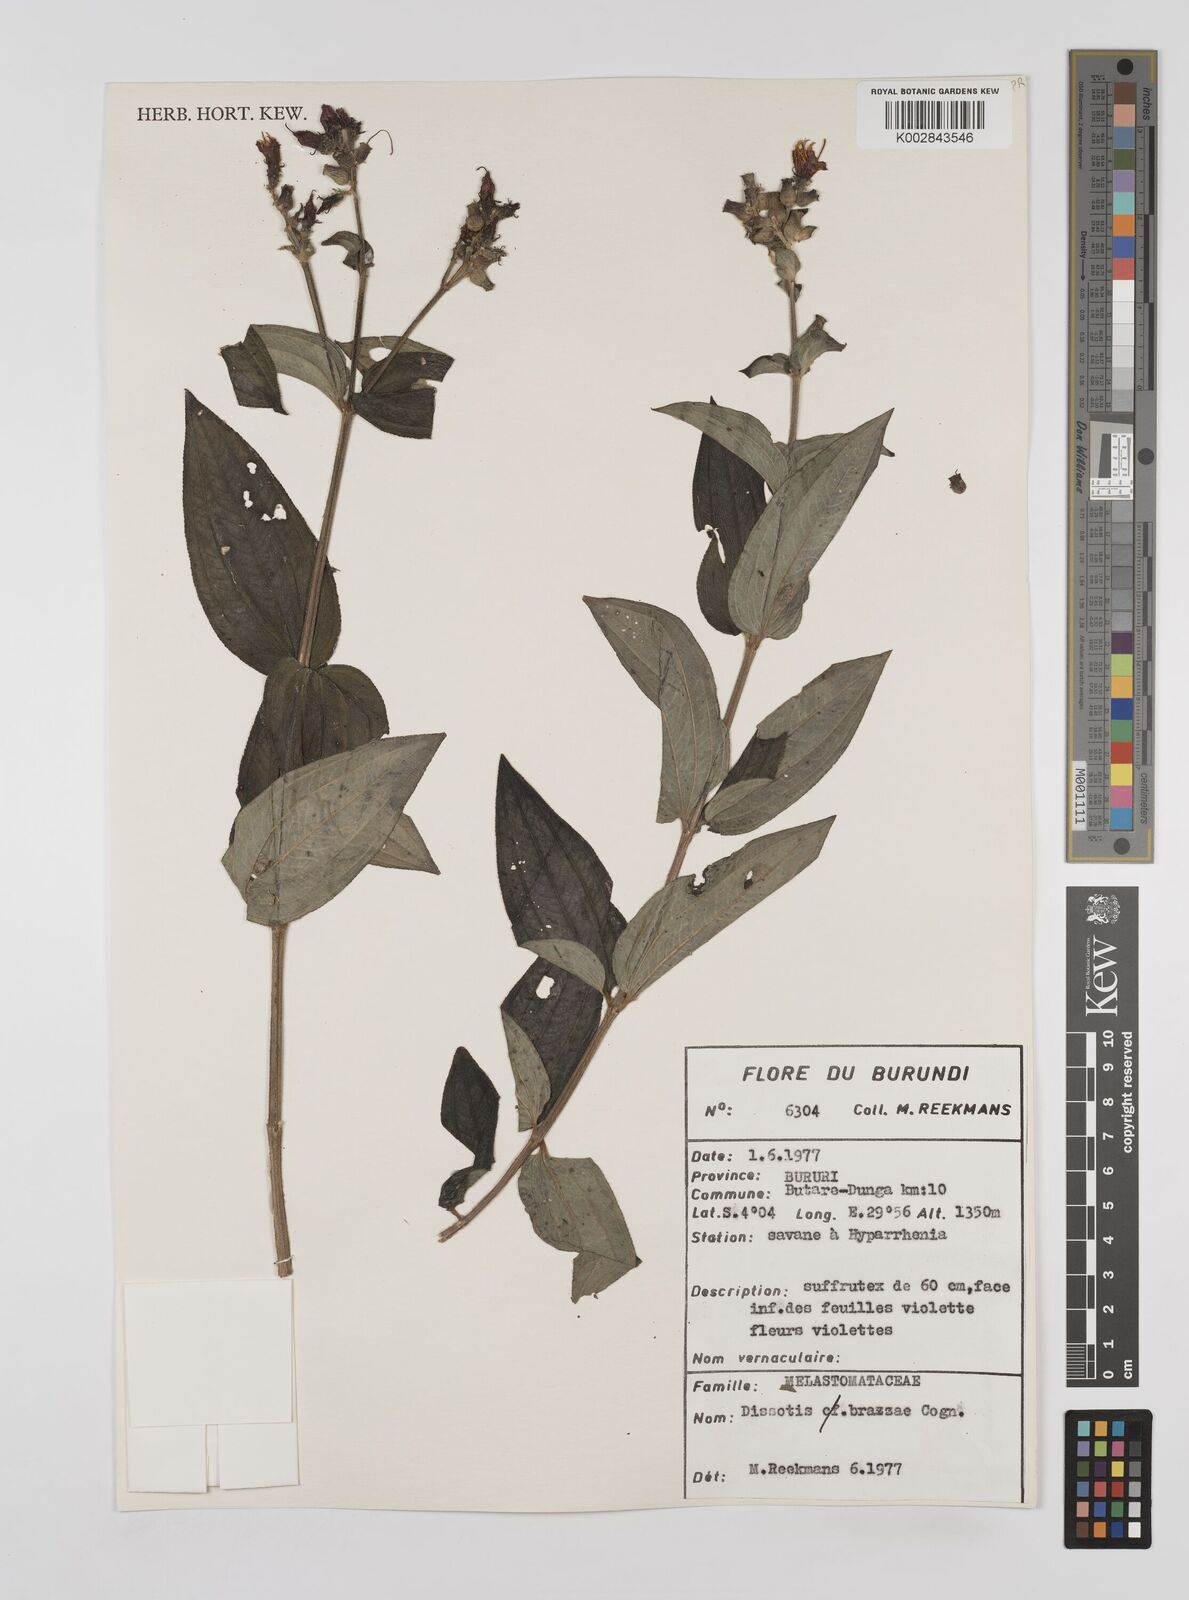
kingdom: Plantae
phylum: Tracheophyta
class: Magnoliopsida
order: Myrtales
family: Melastomataceae
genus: Dupineta
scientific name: Dupineta brazzae
